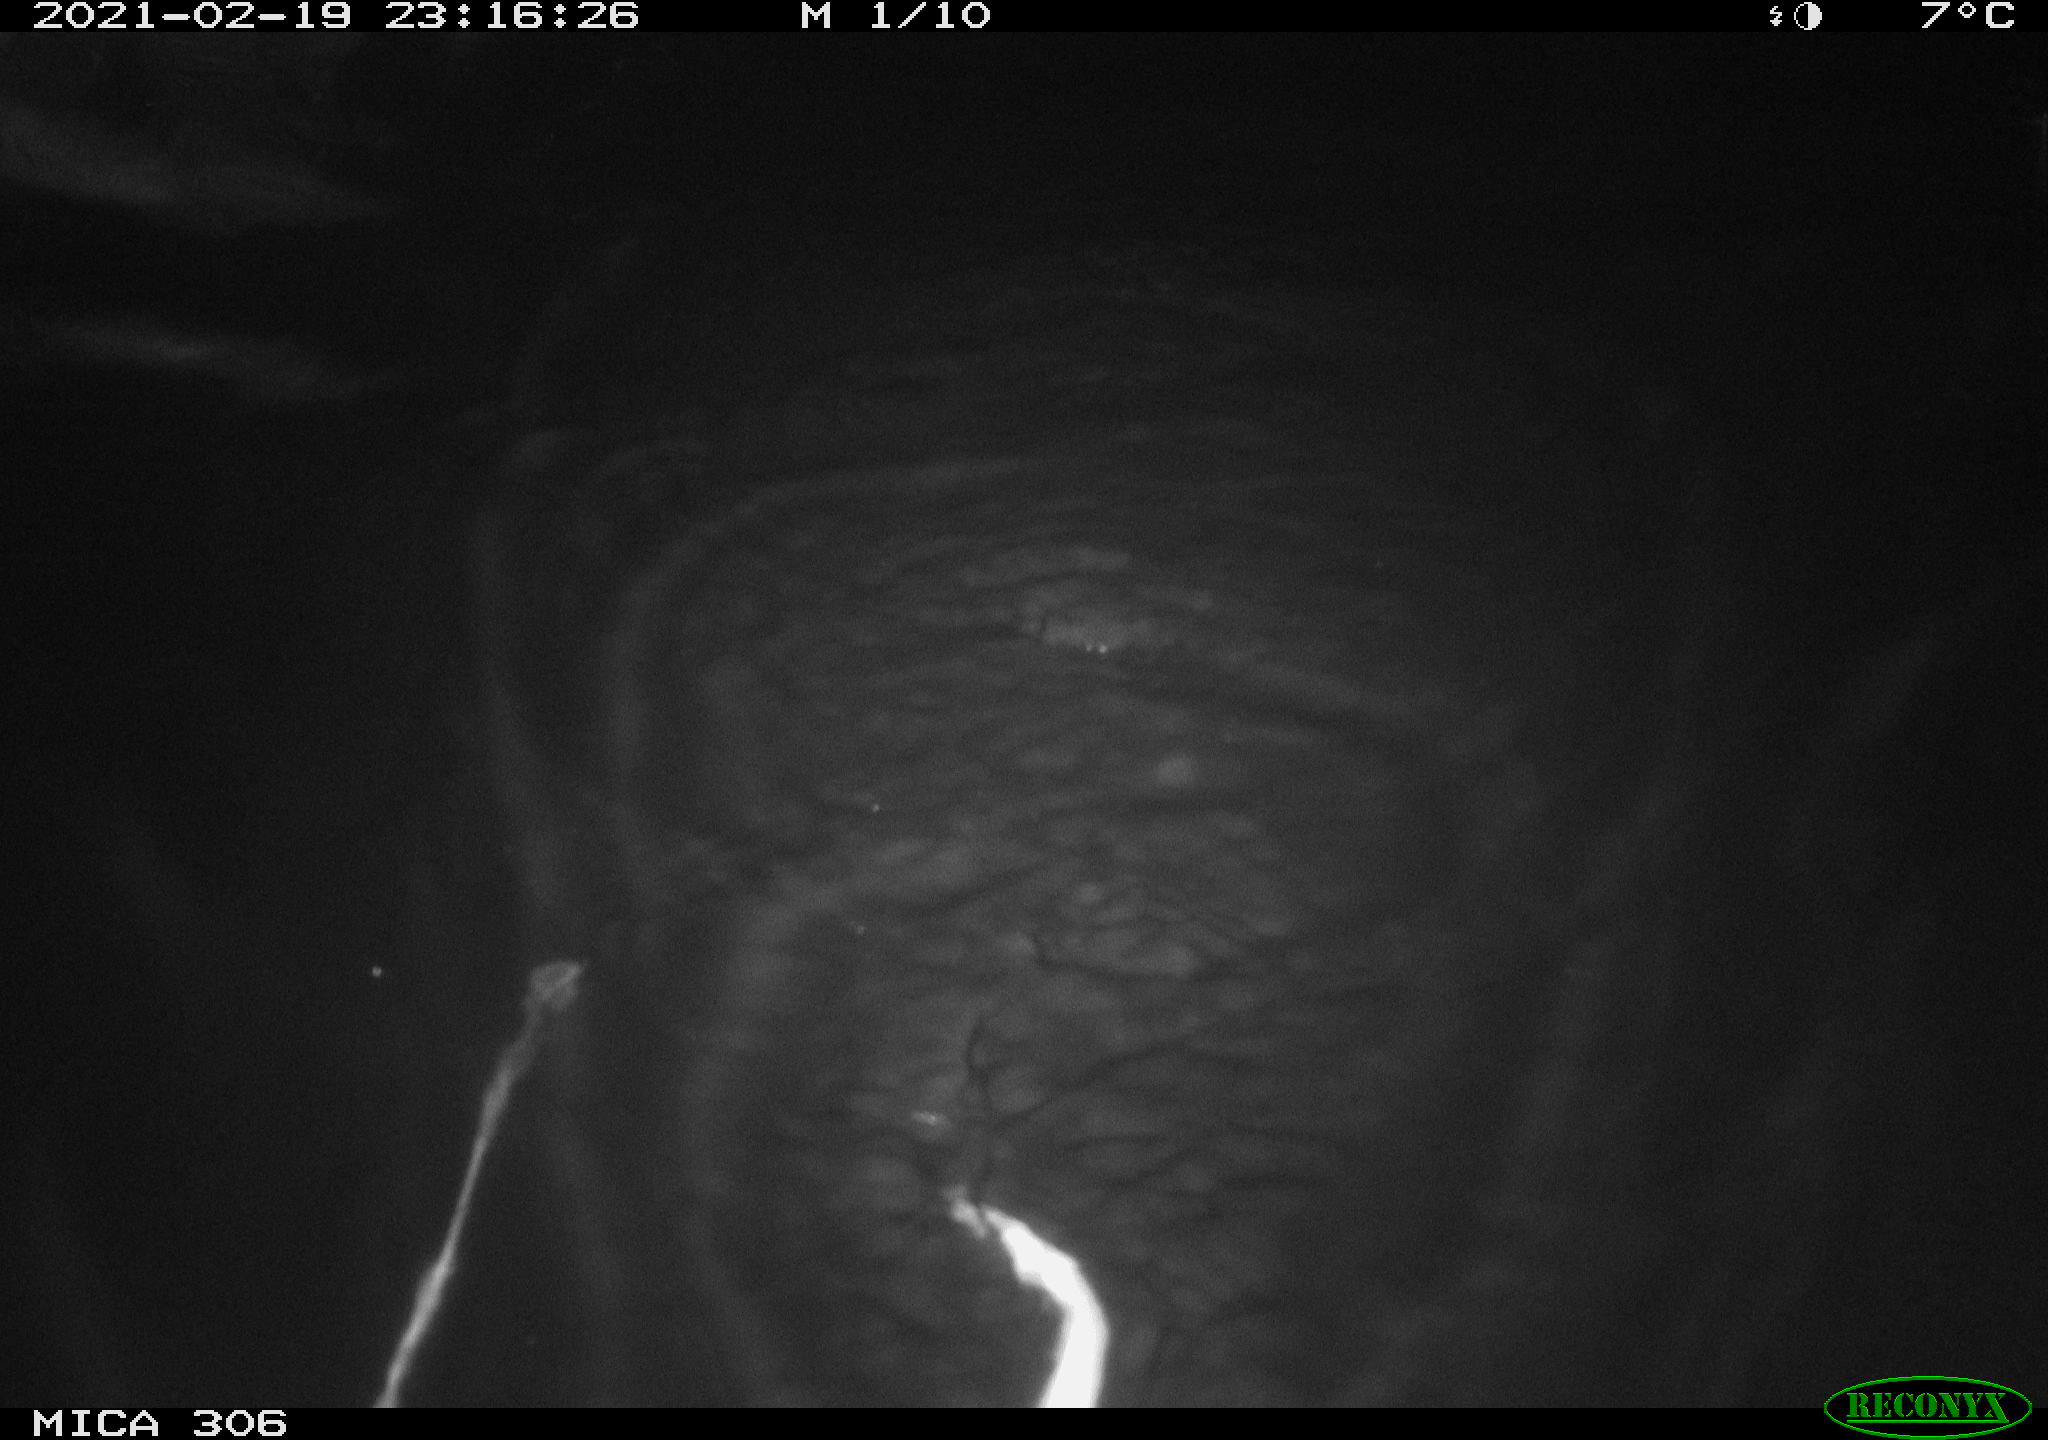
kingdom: Animalia
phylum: Chordata
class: Mammalia
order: Rodentia
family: Cricetidae
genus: Ondatra
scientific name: Ondatra zibethicus
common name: Muskrat
